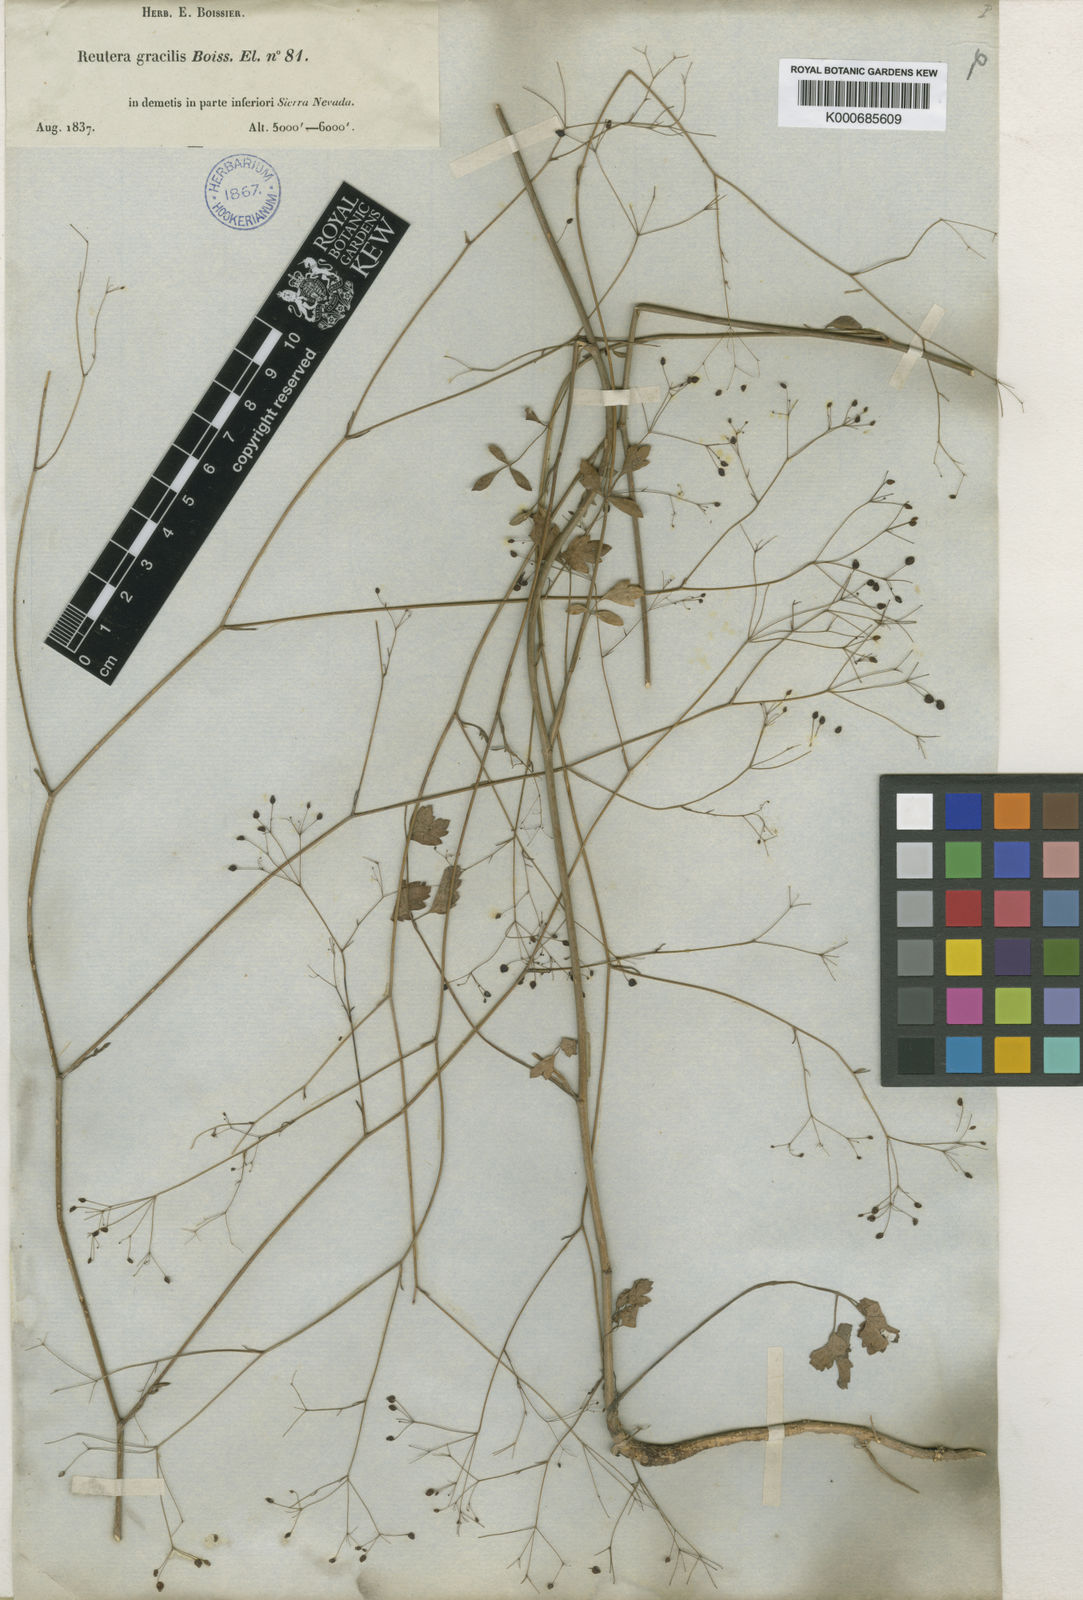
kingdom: Plantae
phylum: Tracheophyta
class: Magnoliopsida
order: Apiales
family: Apiaceae
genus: Pimpinella
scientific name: Pimpinella
